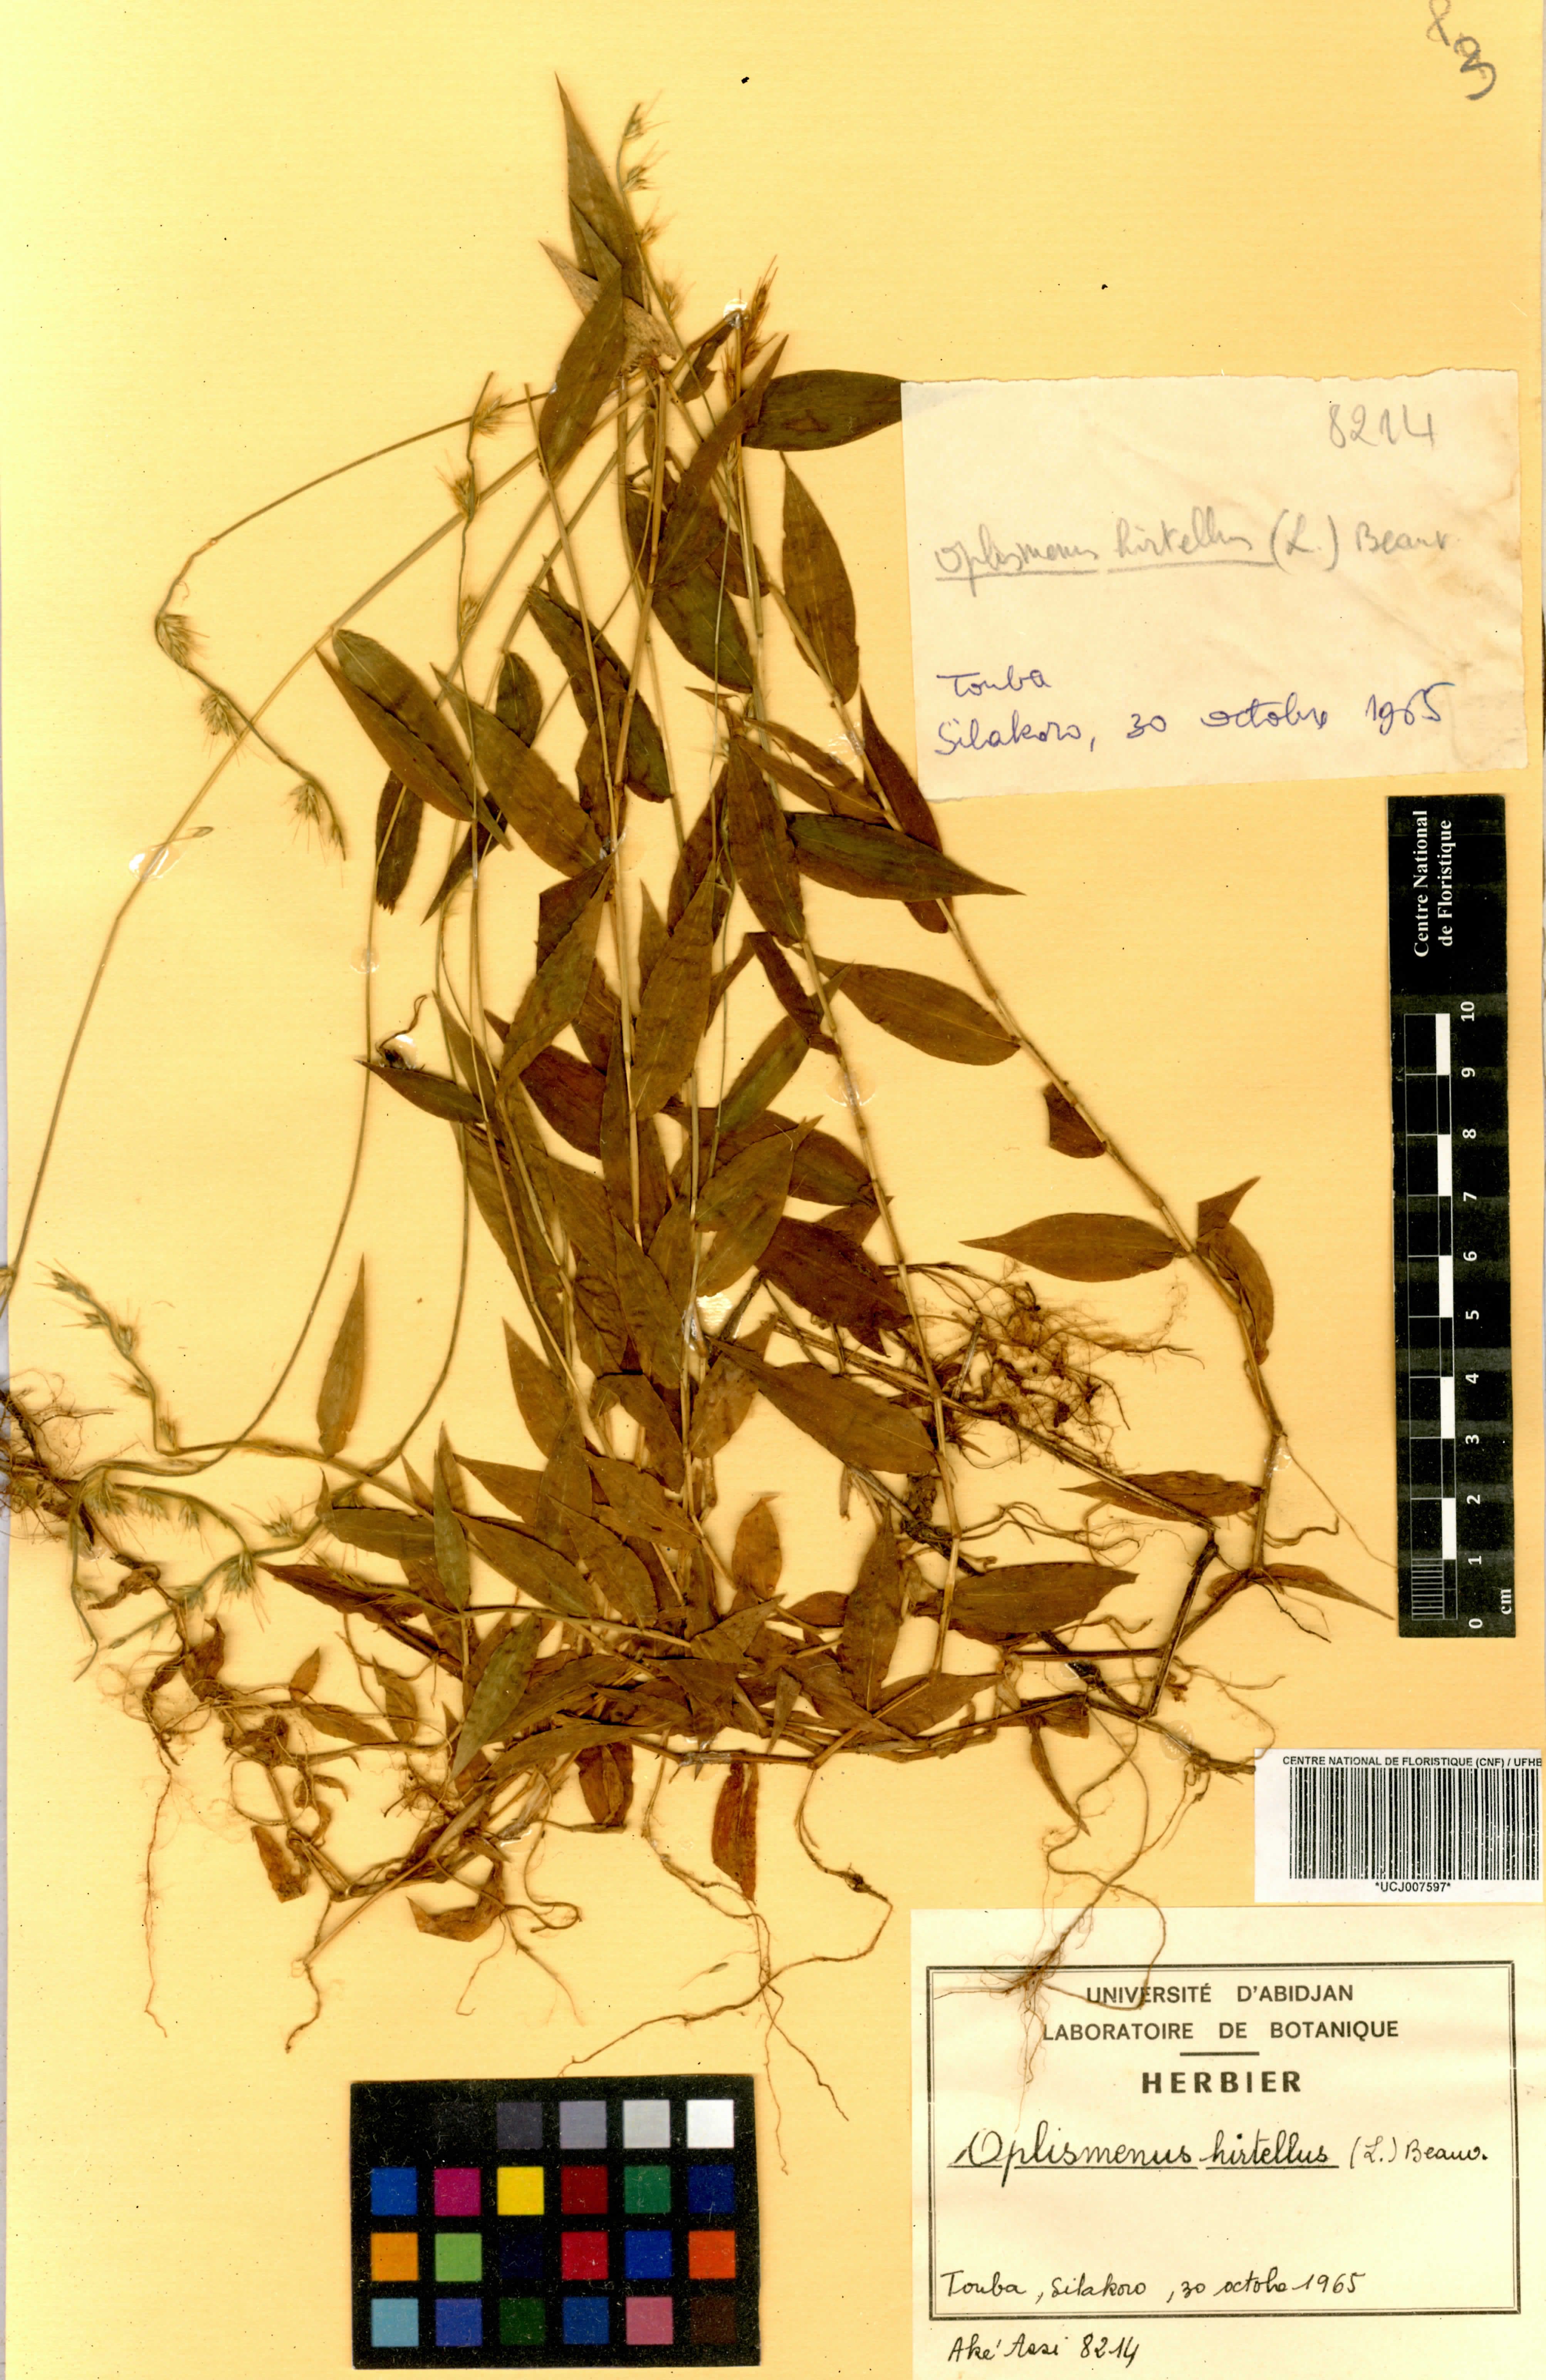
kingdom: Plantae
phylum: Tracheophyta
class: Liliopsida
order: Poales
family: Poaceae
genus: Oplismenus
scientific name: Oplismenus hirtellus
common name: Basketgrass
